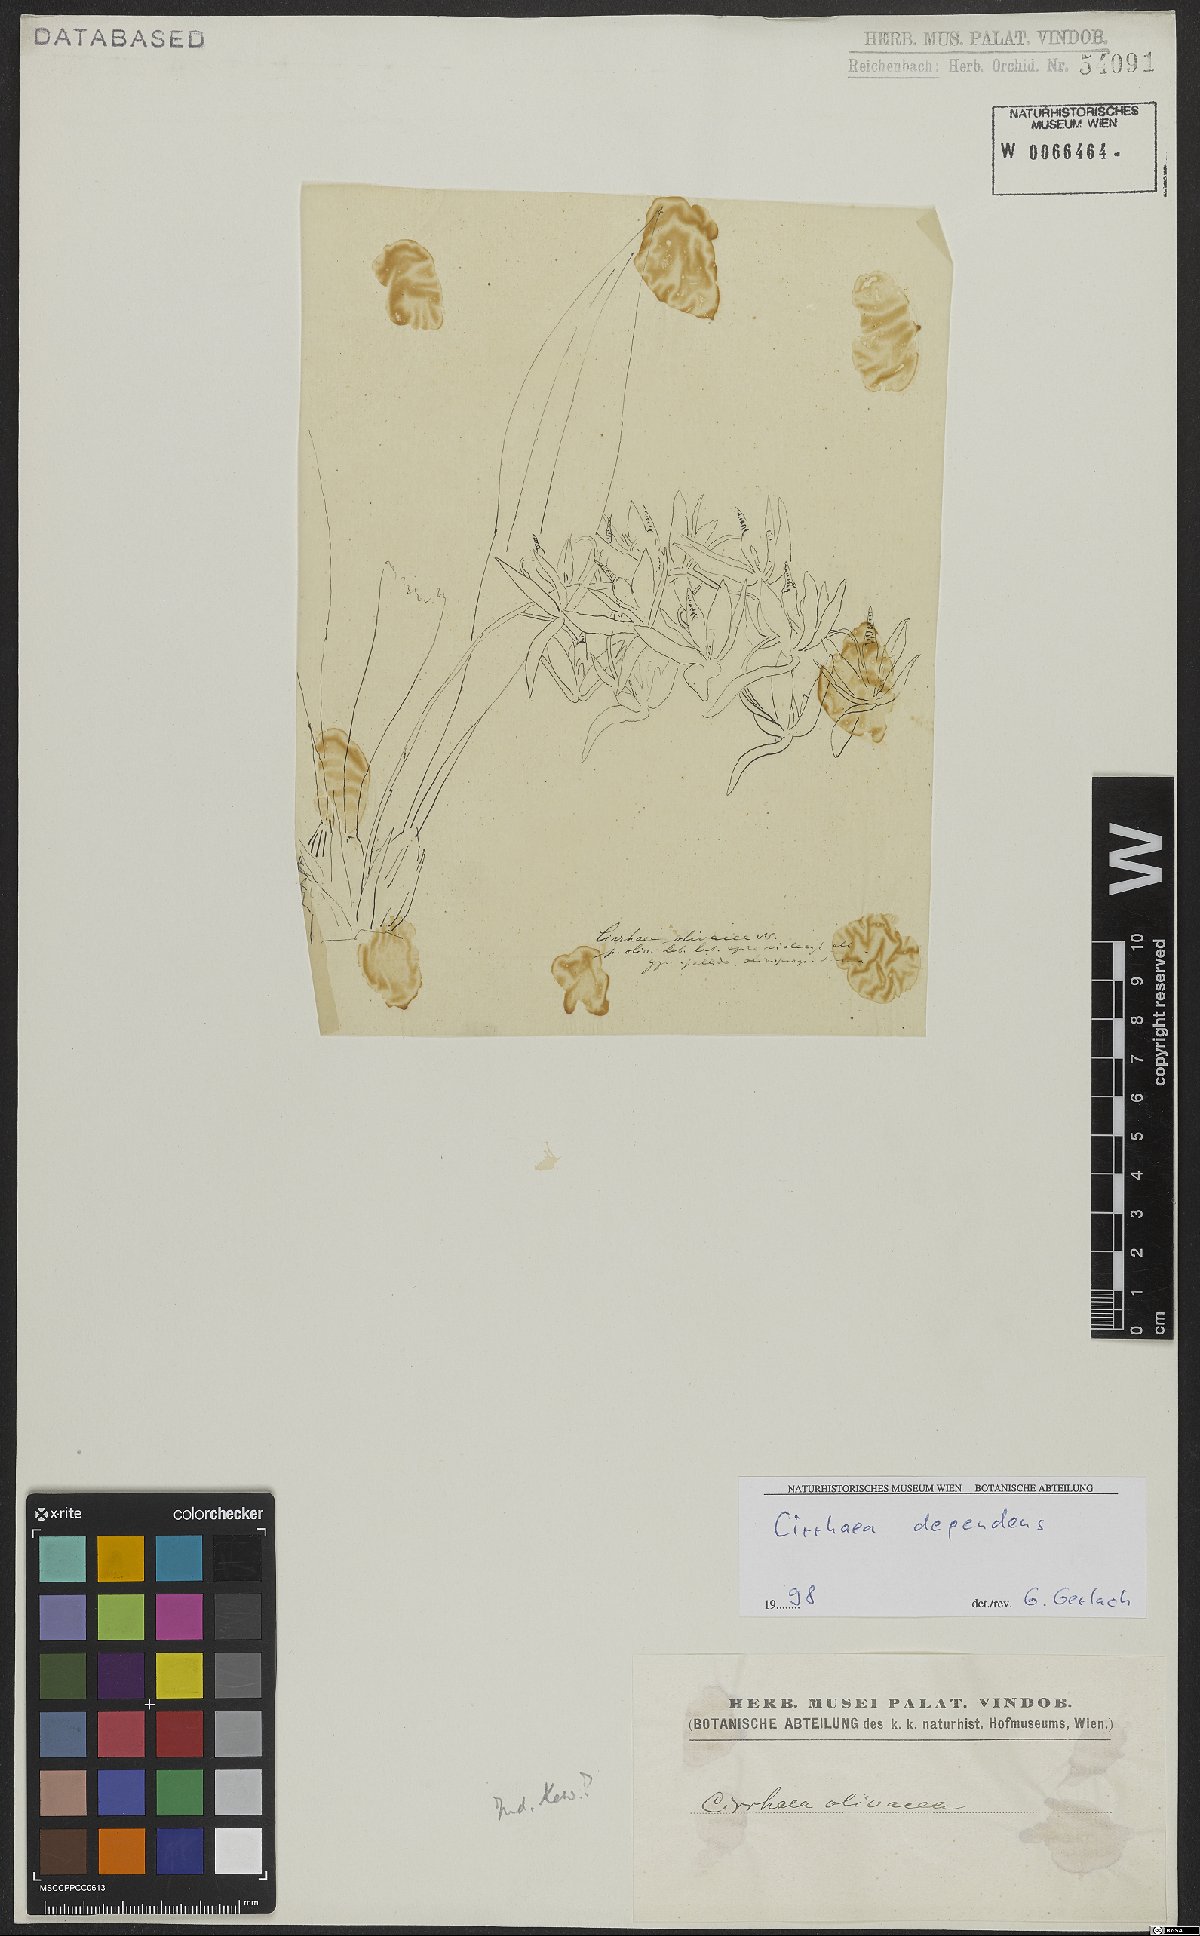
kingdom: Plantae
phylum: Tracheophyta
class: Liliopsida
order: Asparagales
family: Orchidaceae
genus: Cirrhaea
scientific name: Cirrhaea dependens
